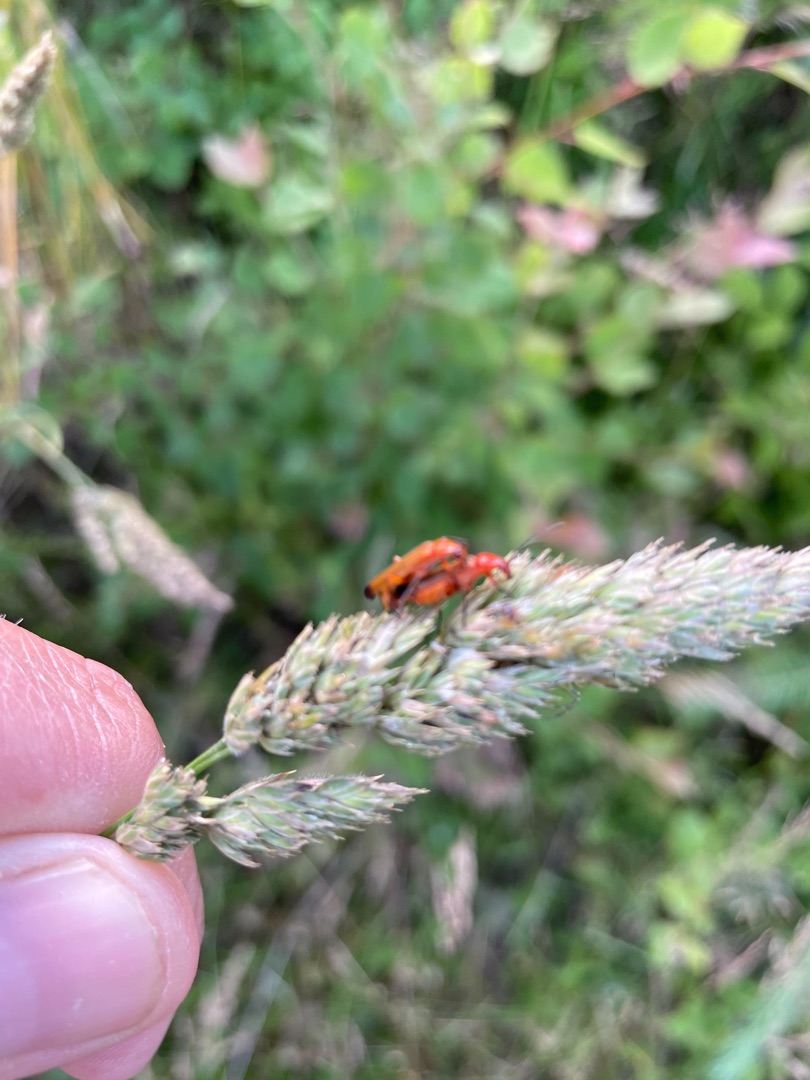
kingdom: Animalia
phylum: Arthropoda
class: Insecta
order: Coleoptera
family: Cantharidae
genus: Rhagonycha
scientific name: Rhagonycha fulva
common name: Præstebille
